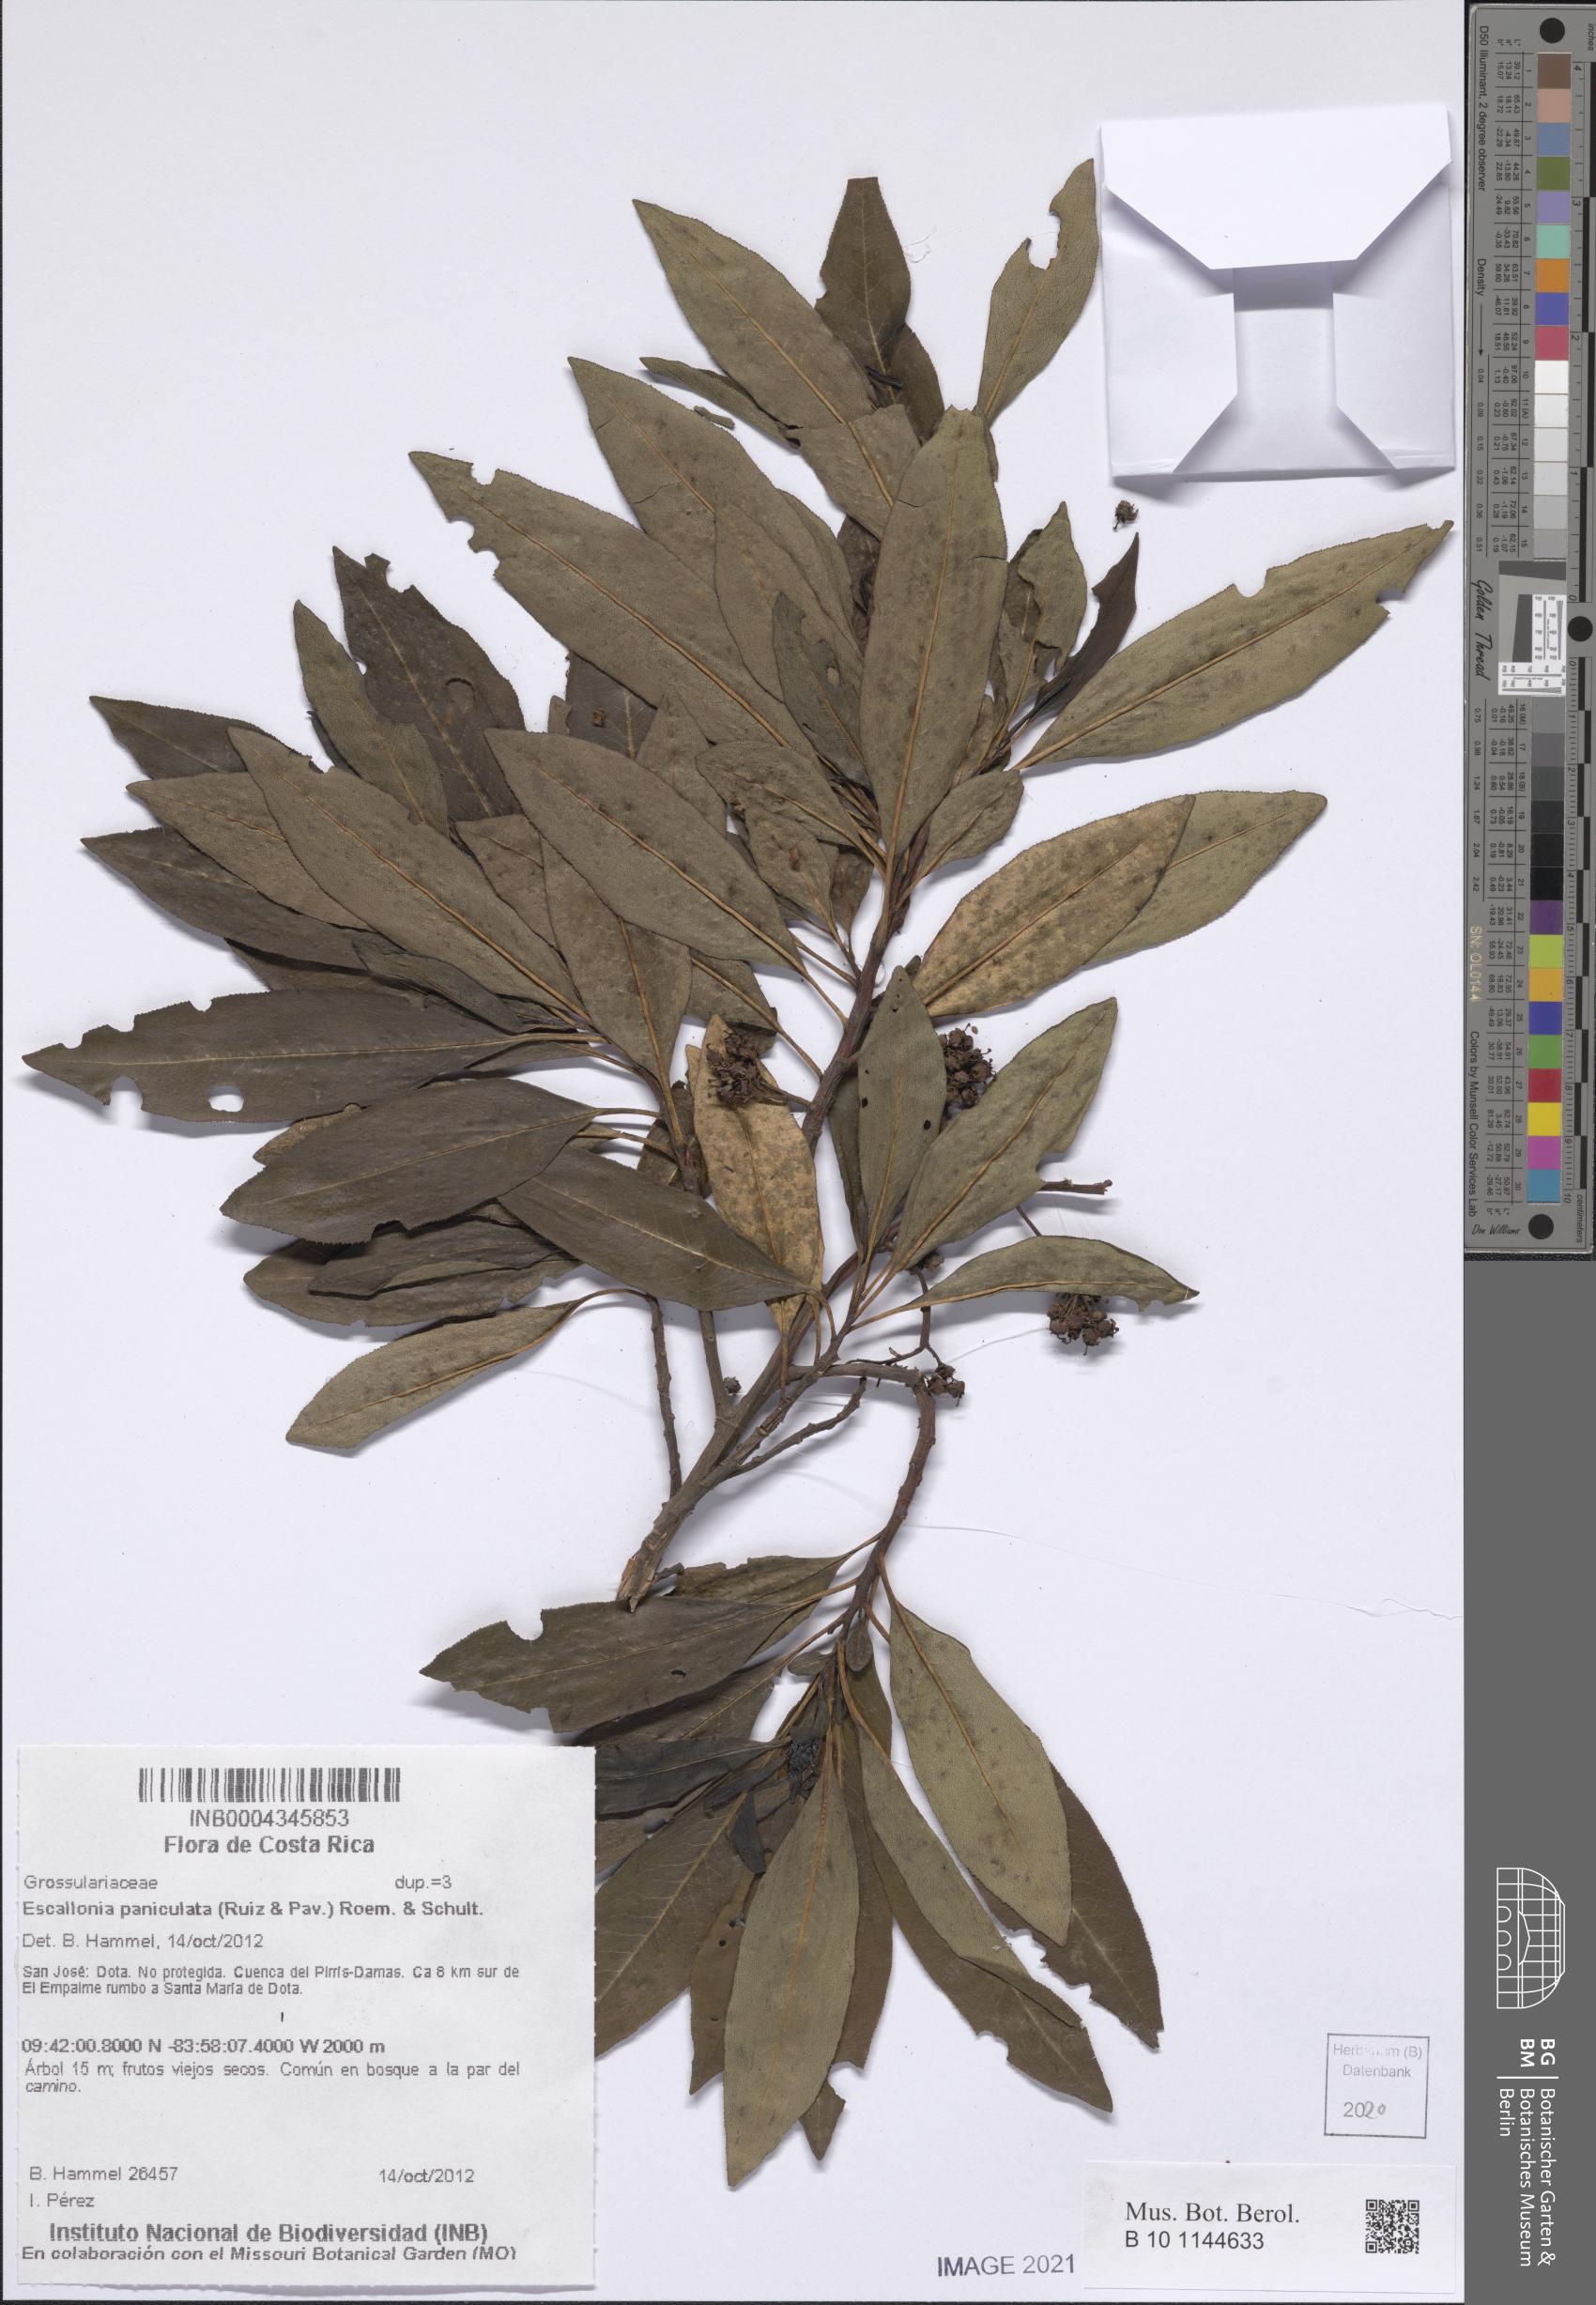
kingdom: Plantae
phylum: Tracheophyta
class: Magnoliopsida
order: Escalloniales
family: Escalloniaceae
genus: Escallonia
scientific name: Escallonia paniculata
